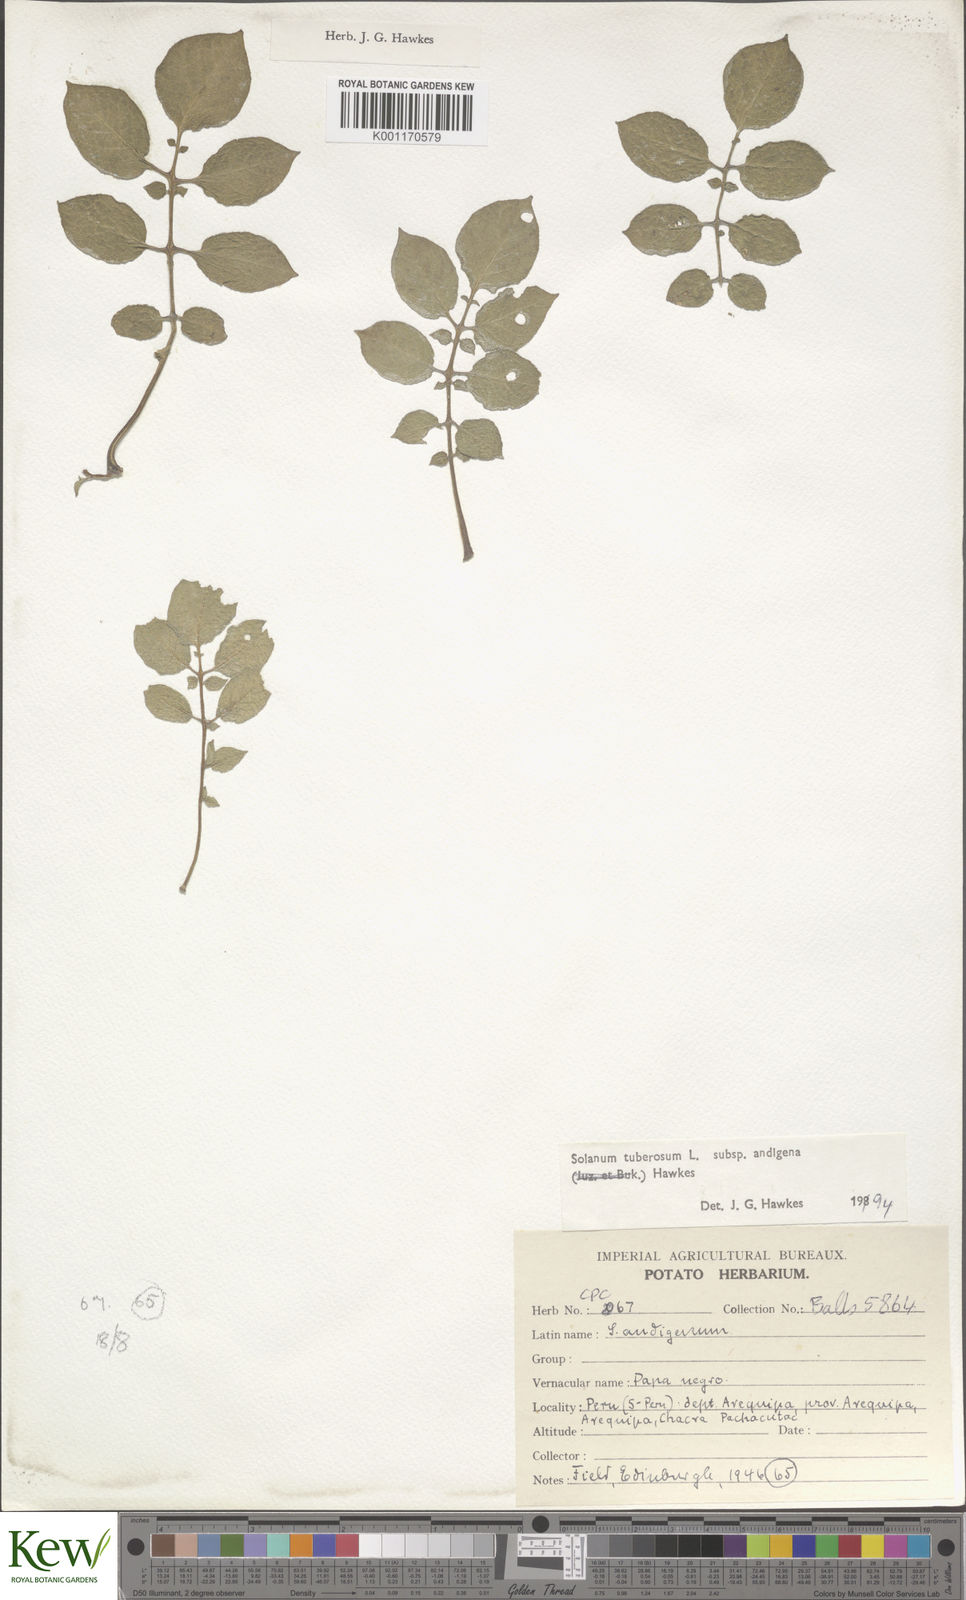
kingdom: Plantae
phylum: Tracheophyta
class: Magnoliopsida
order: Solanales
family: Solanaceae
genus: Solanum
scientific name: Solanum tuberosum
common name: Potato
